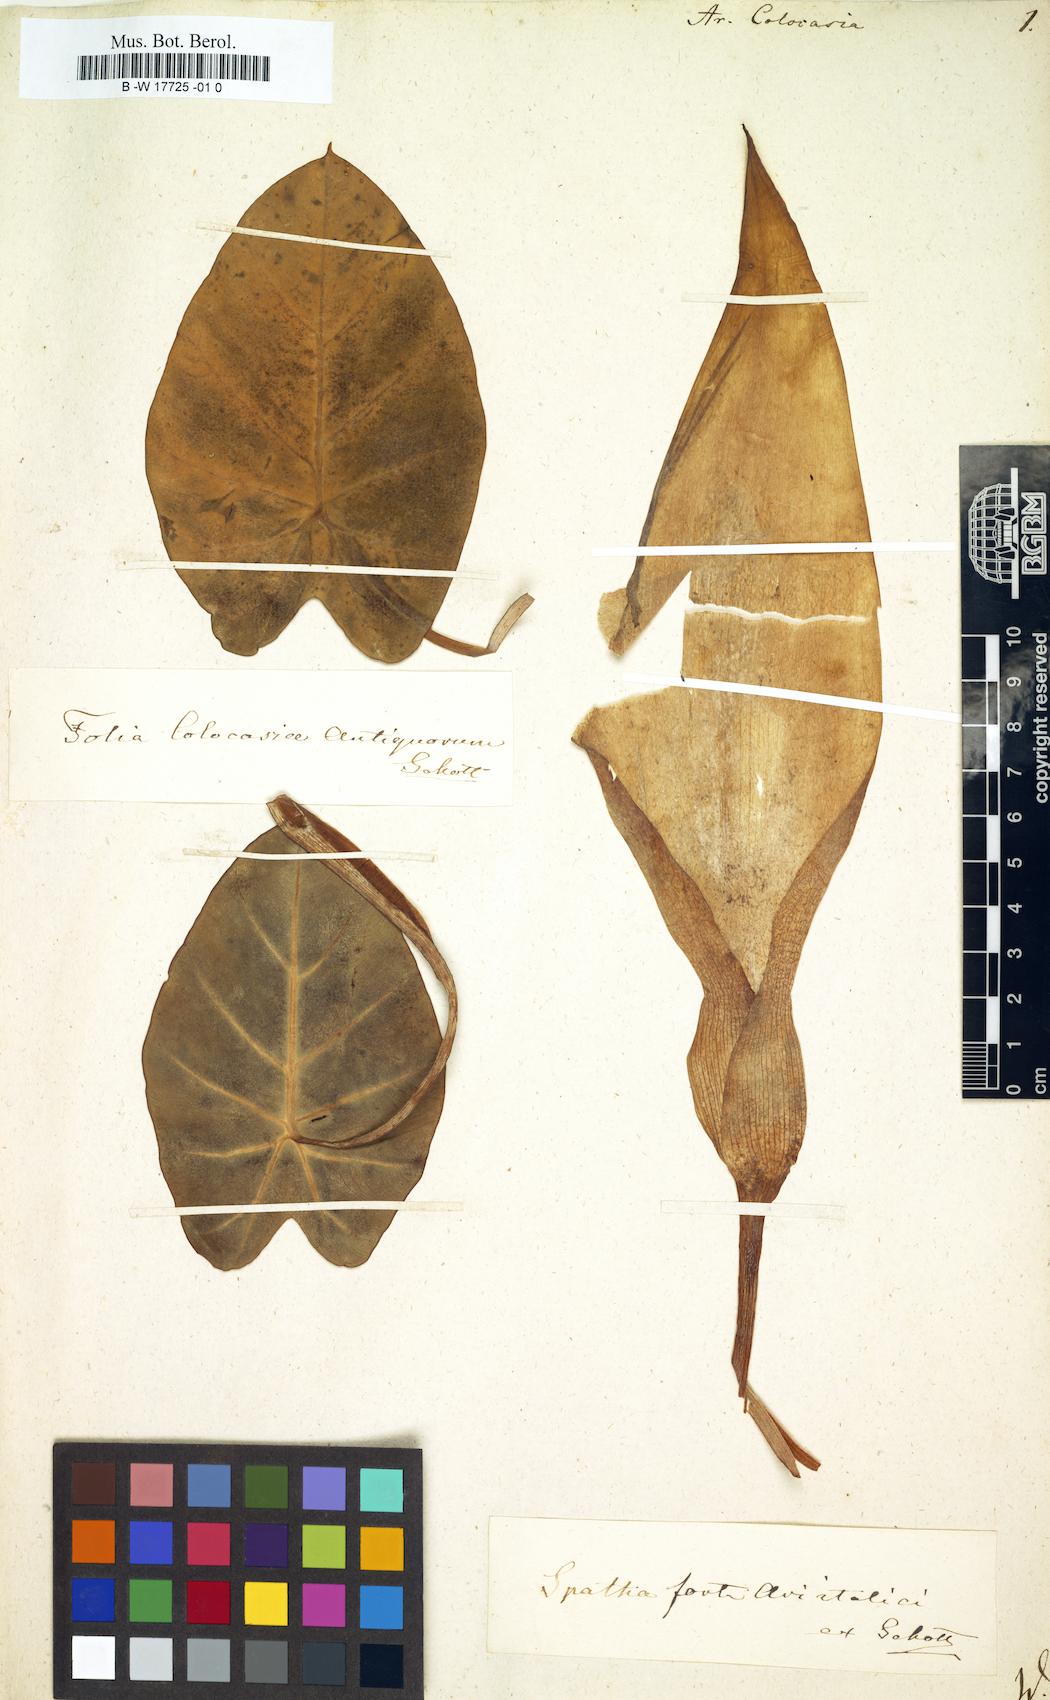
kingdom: Plantae
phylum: Tracheophyta
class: Liliopsida
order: Alismatales
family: Araceae
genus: Colocasia
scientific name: Colocasia esculenta
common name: Taro
